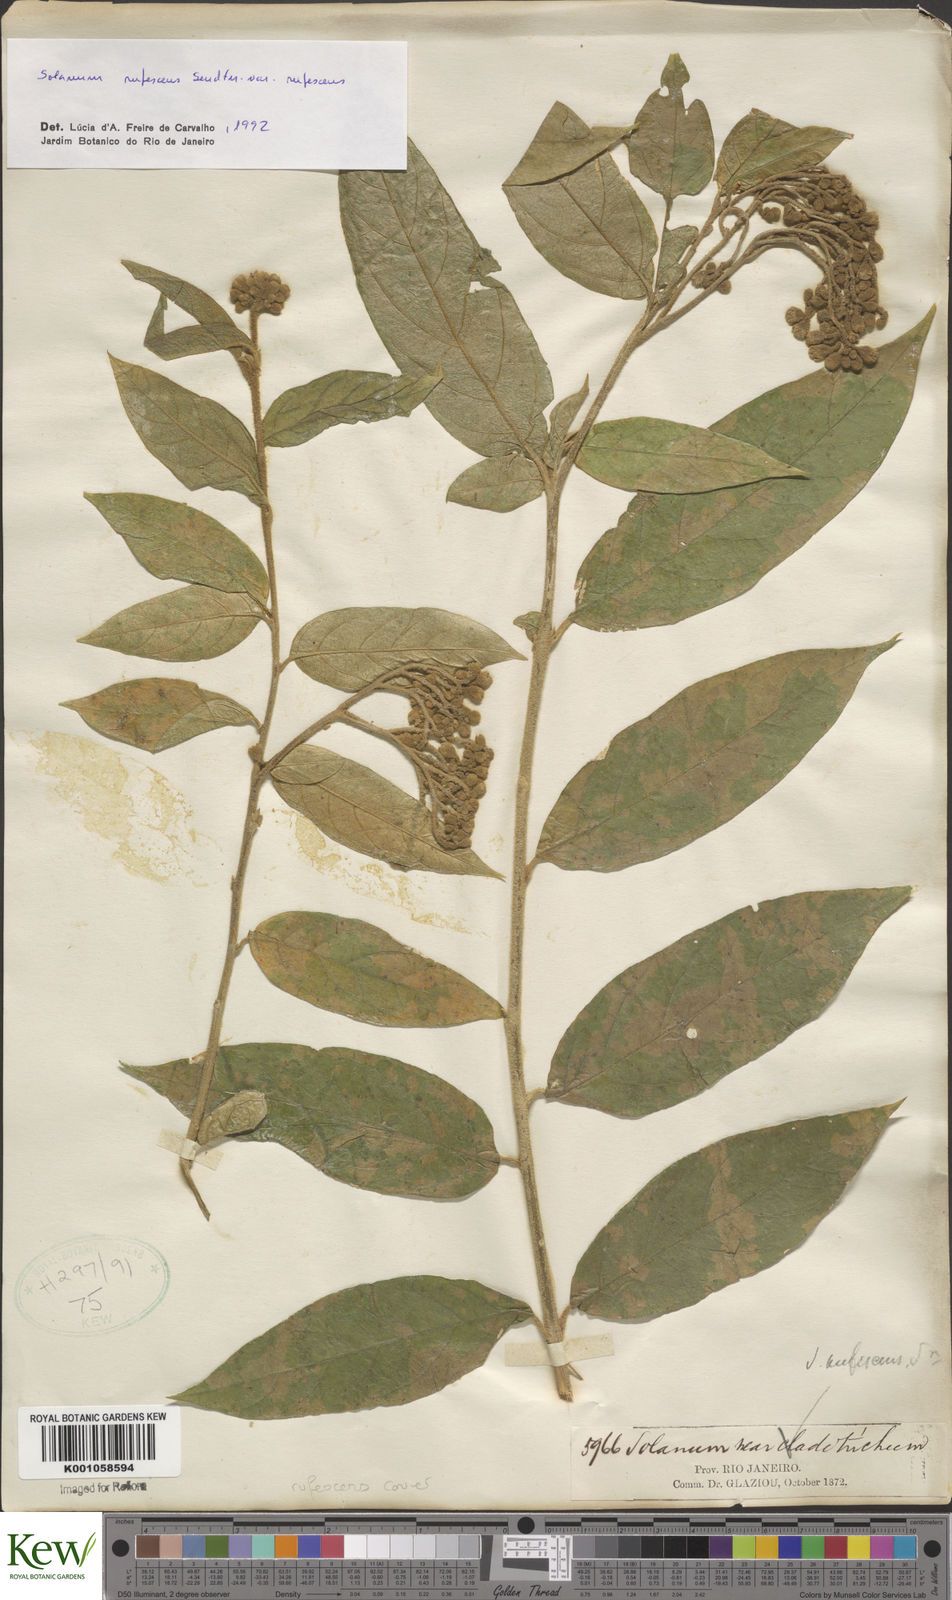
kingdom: Plantae
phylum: Tracheophyta
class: Magnoliopsida
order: Solanales
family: Solanaceae
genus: Solanum
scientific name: Solanum rufescens
